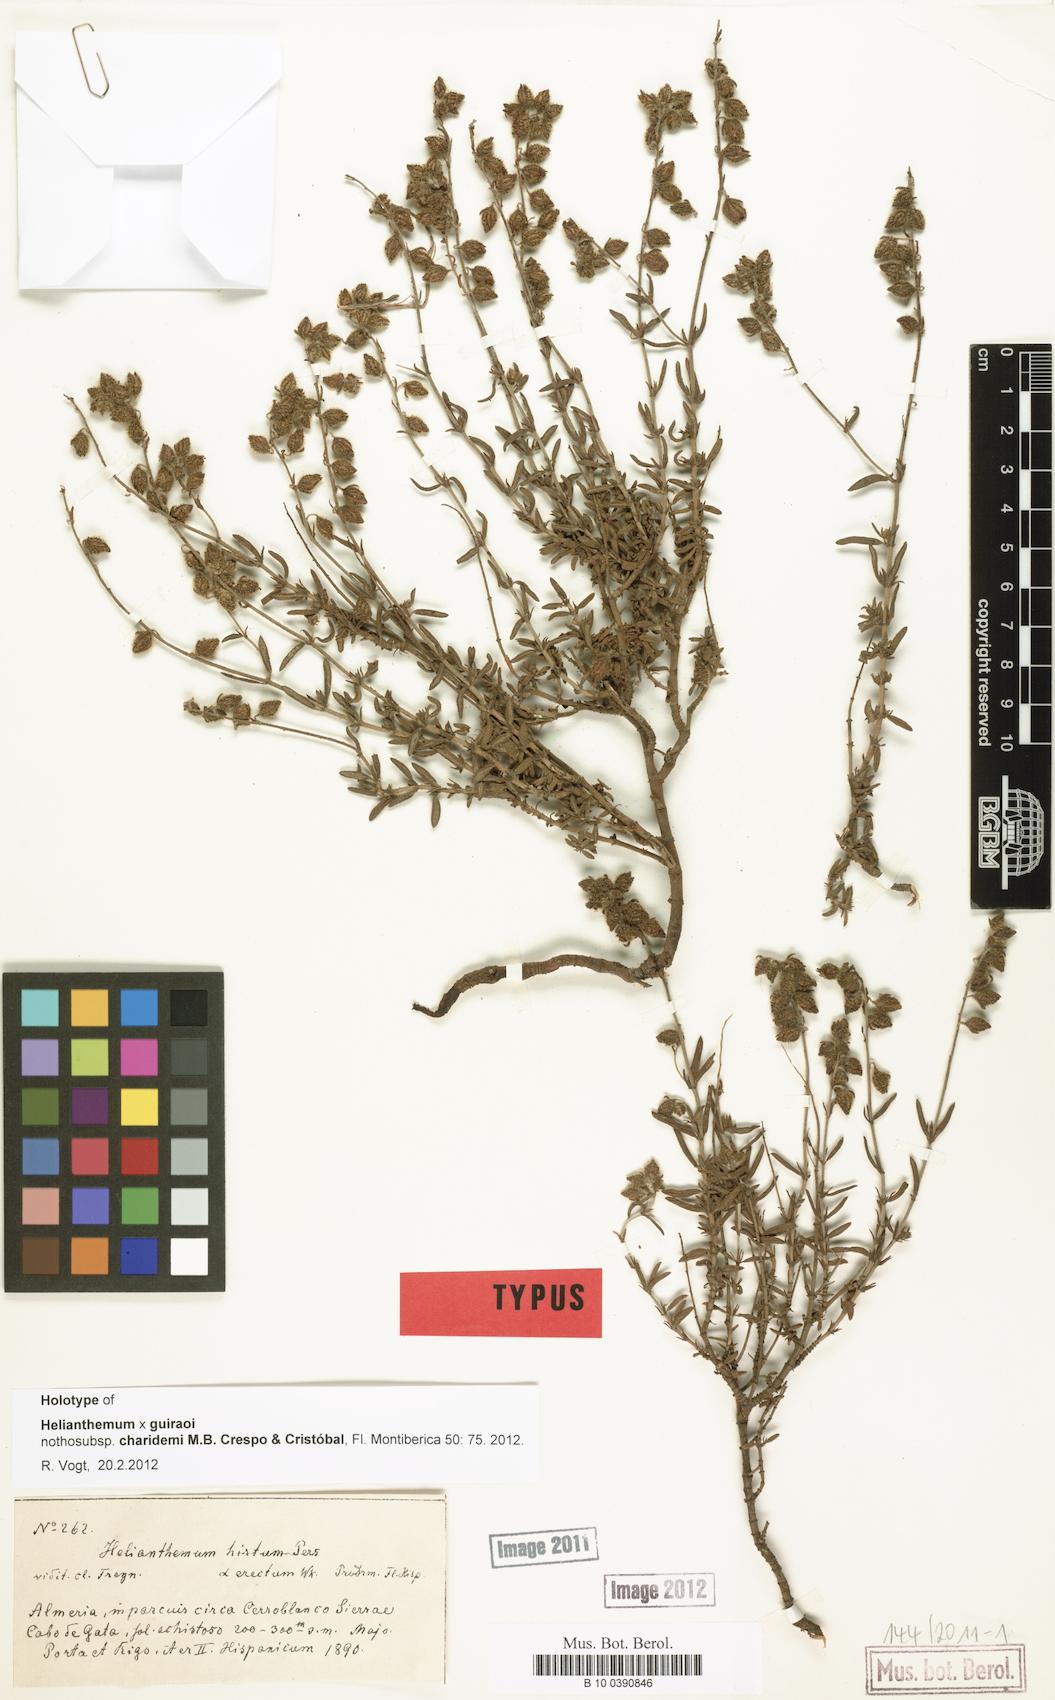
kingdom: Plantae
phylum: Tracheophyta
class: Magnoliopsida
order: Malvales
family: Cistaceae
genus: Helianthemum
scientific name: Helianthemum guiraoi
